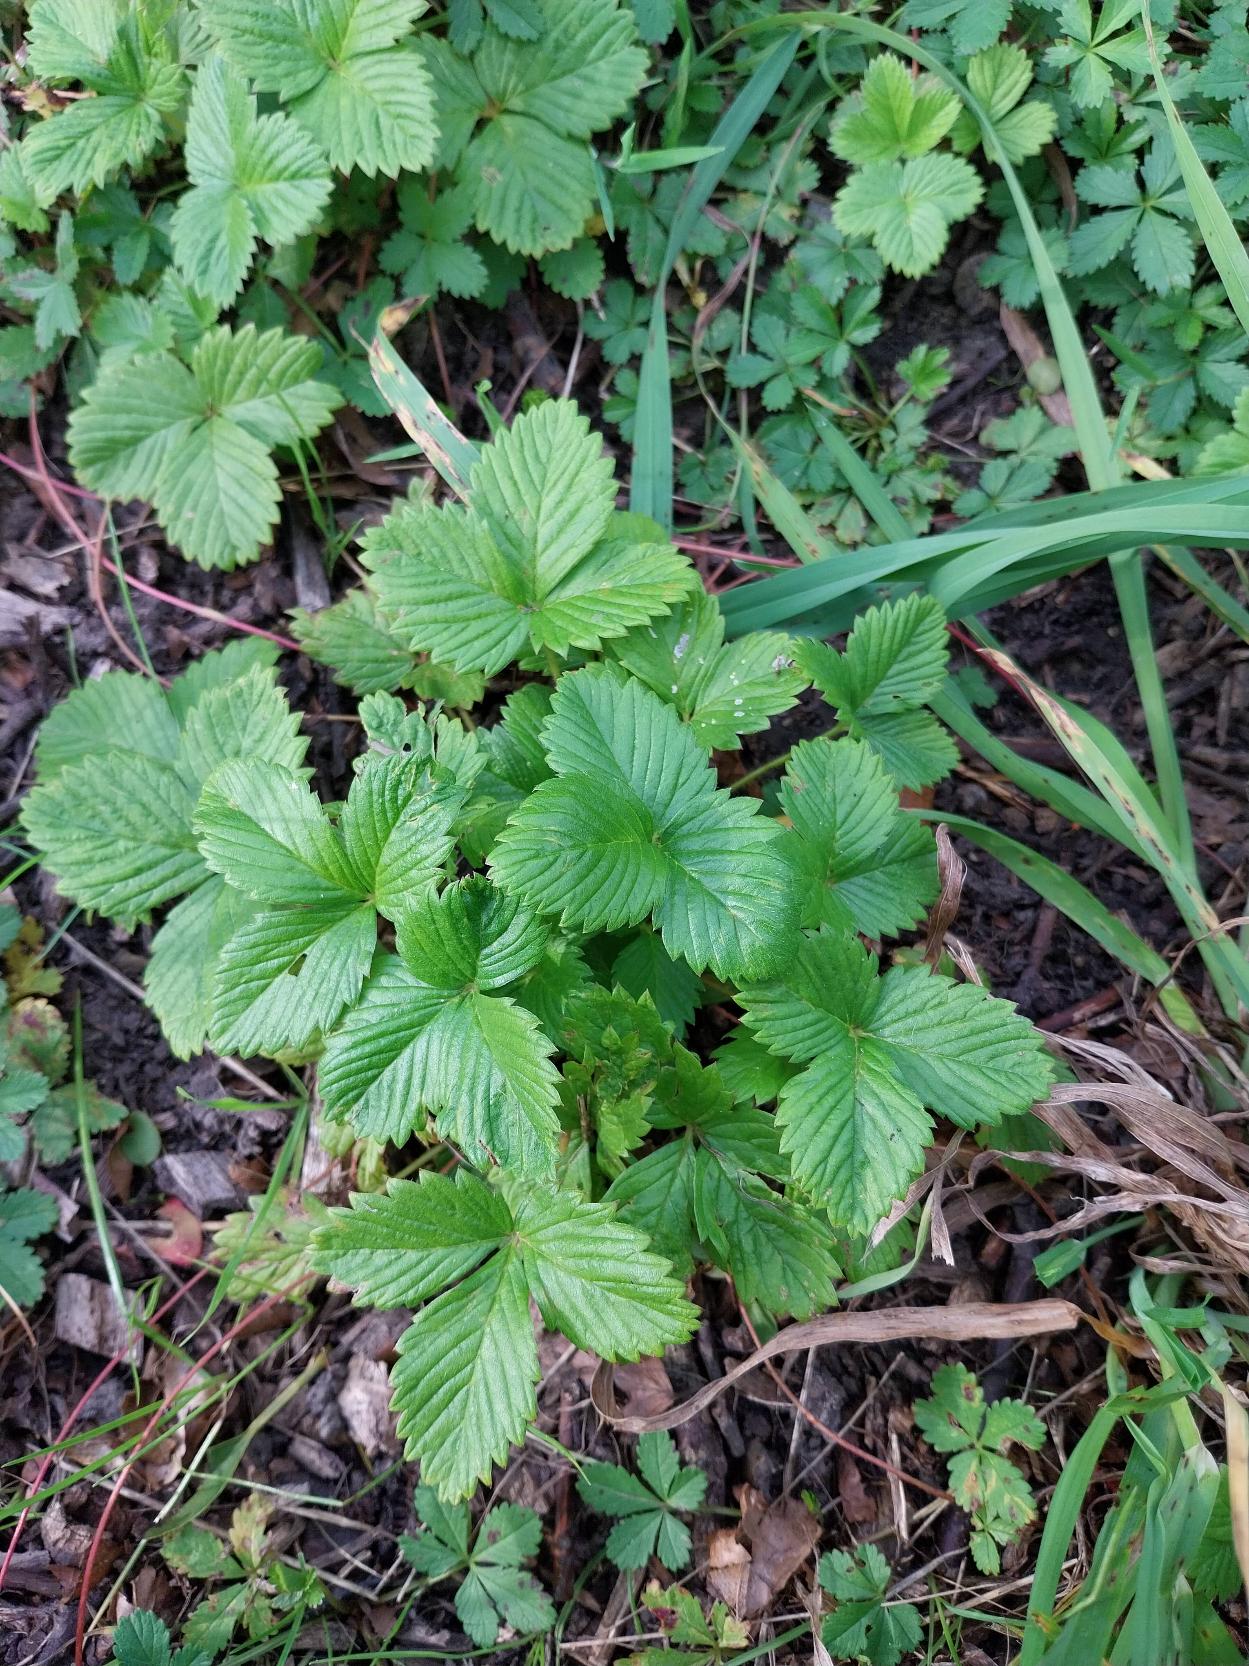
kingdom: Plantae
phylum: Tracheophyta
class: Magnoliopsida
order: Rosales
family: Rosaceae
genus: Fragaria
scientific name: Fragaria vesca
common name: Skov-jordbær
